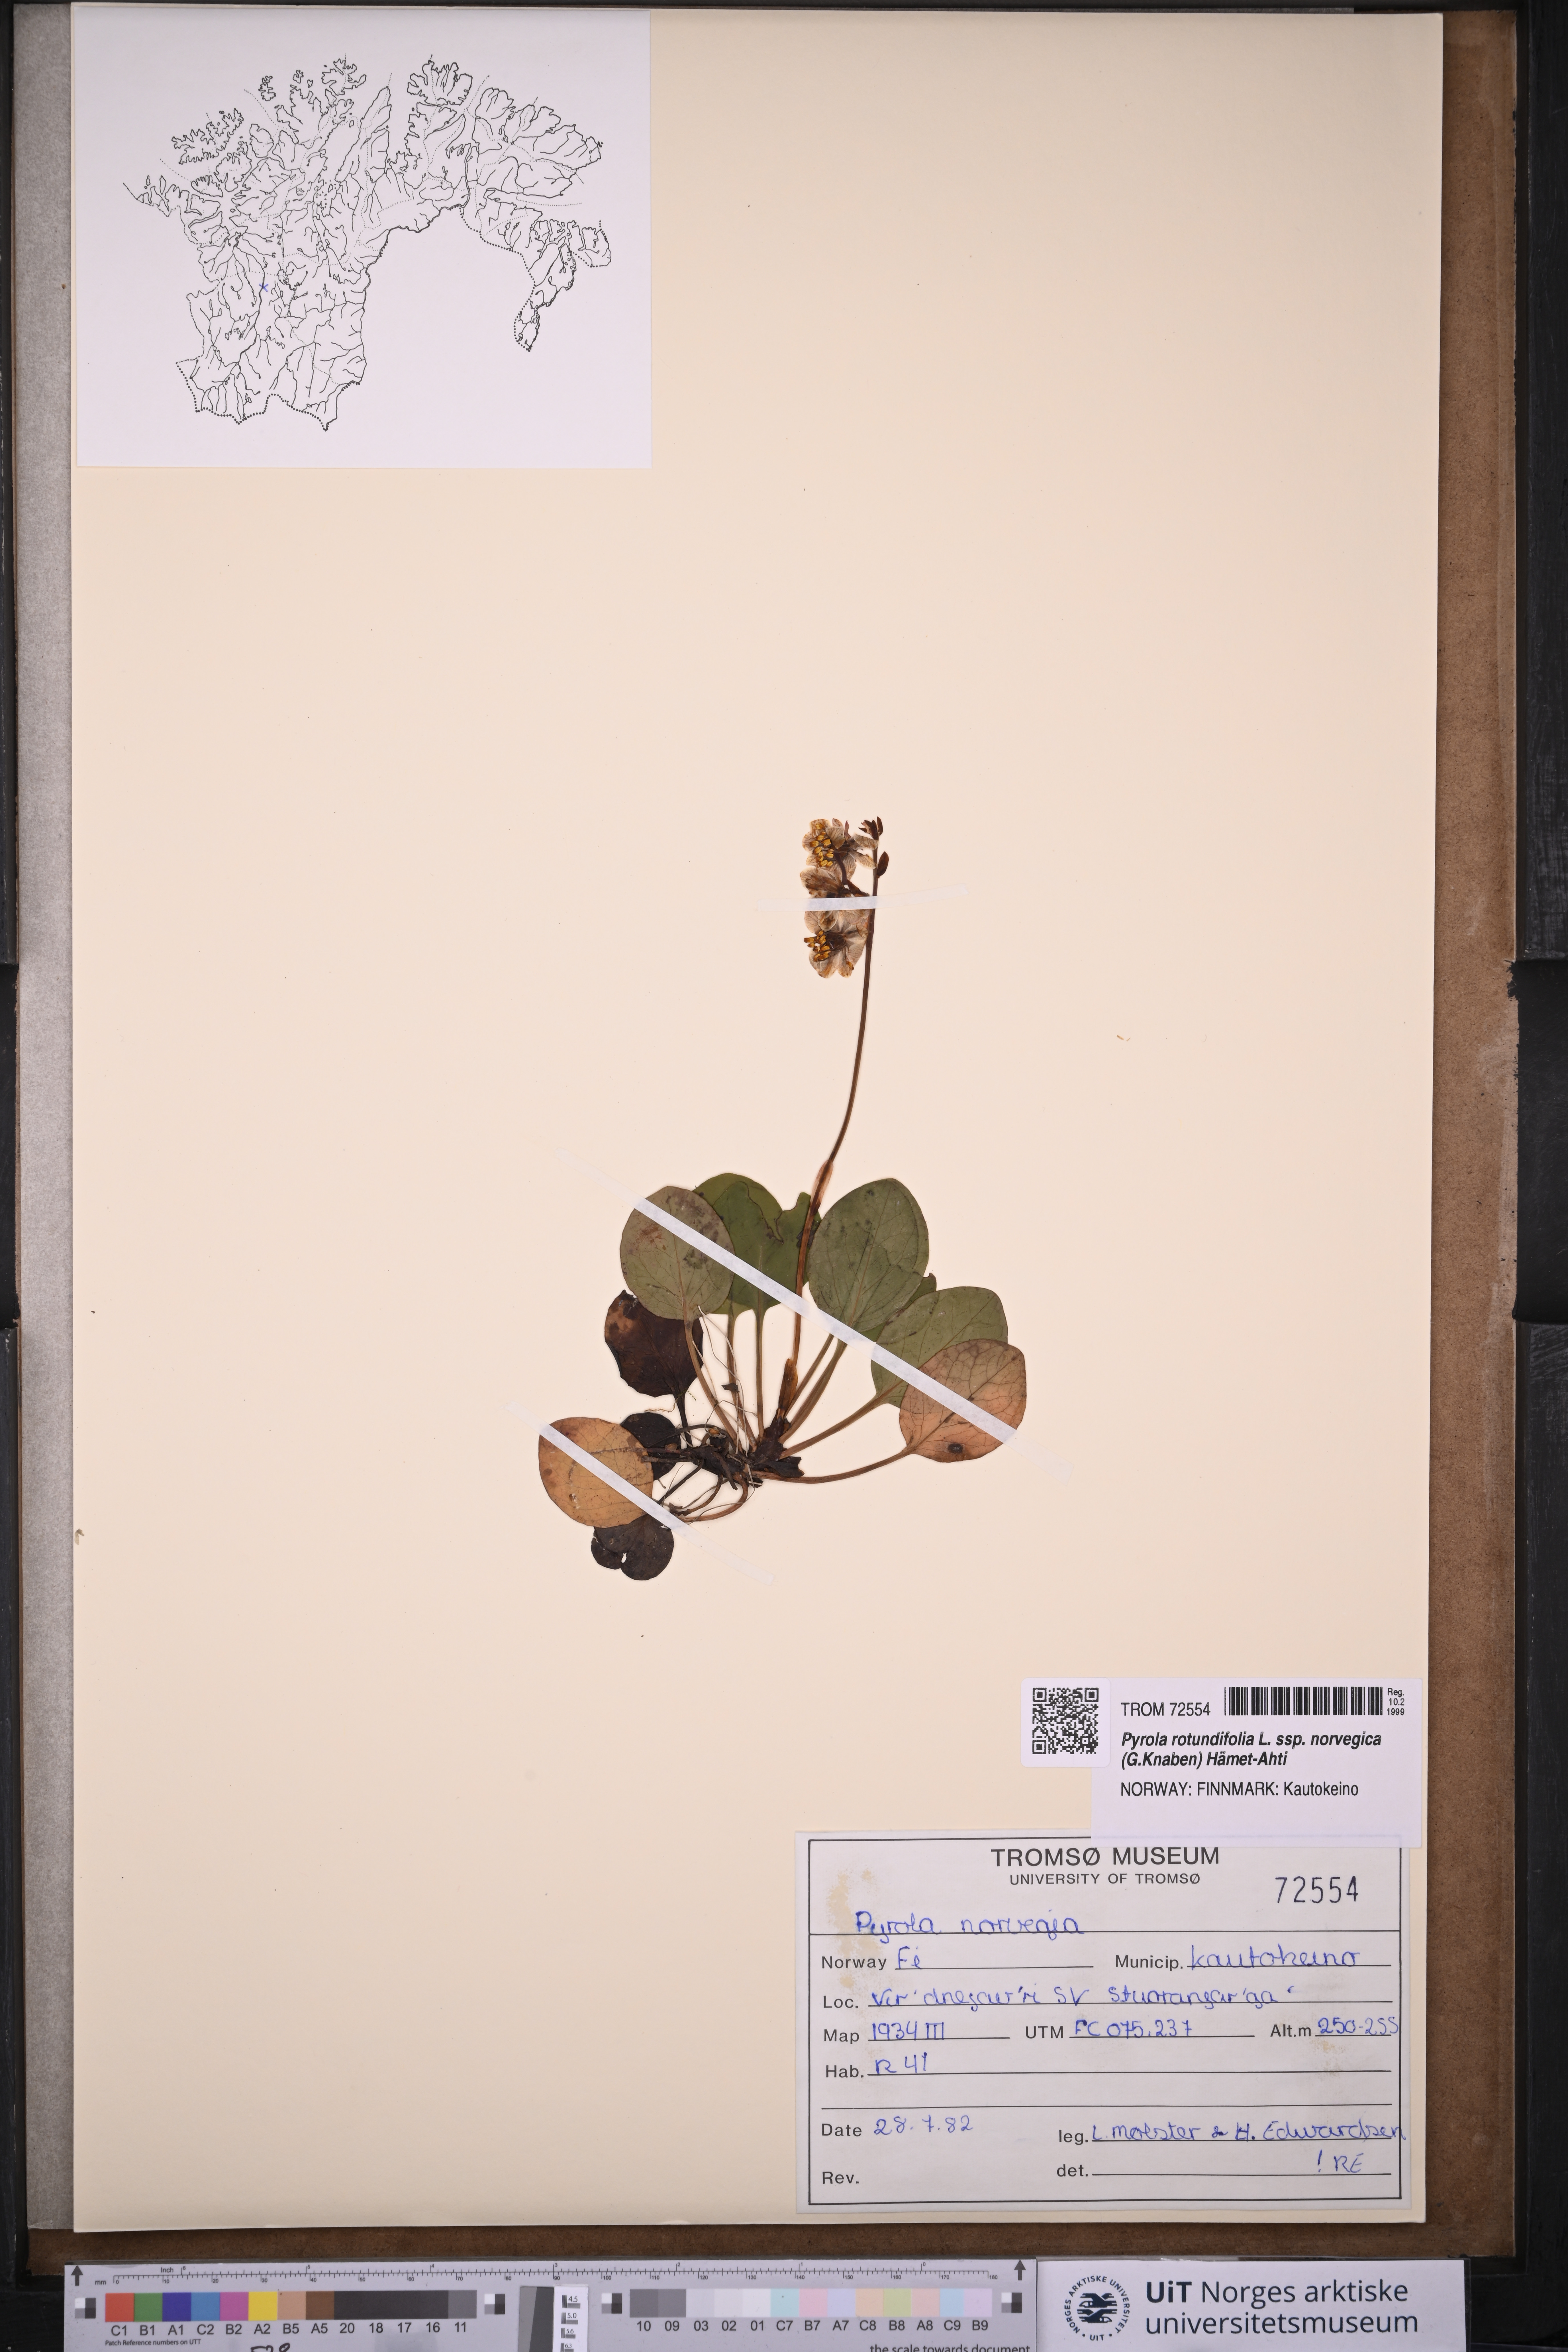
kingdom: Plantae
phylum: Tracheophyta
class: Magnoliopsida
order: Ericales
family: Ericaceae
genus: Pyrola
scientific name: Pyrola rotundifolia
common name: Round-leaved wintergreen
